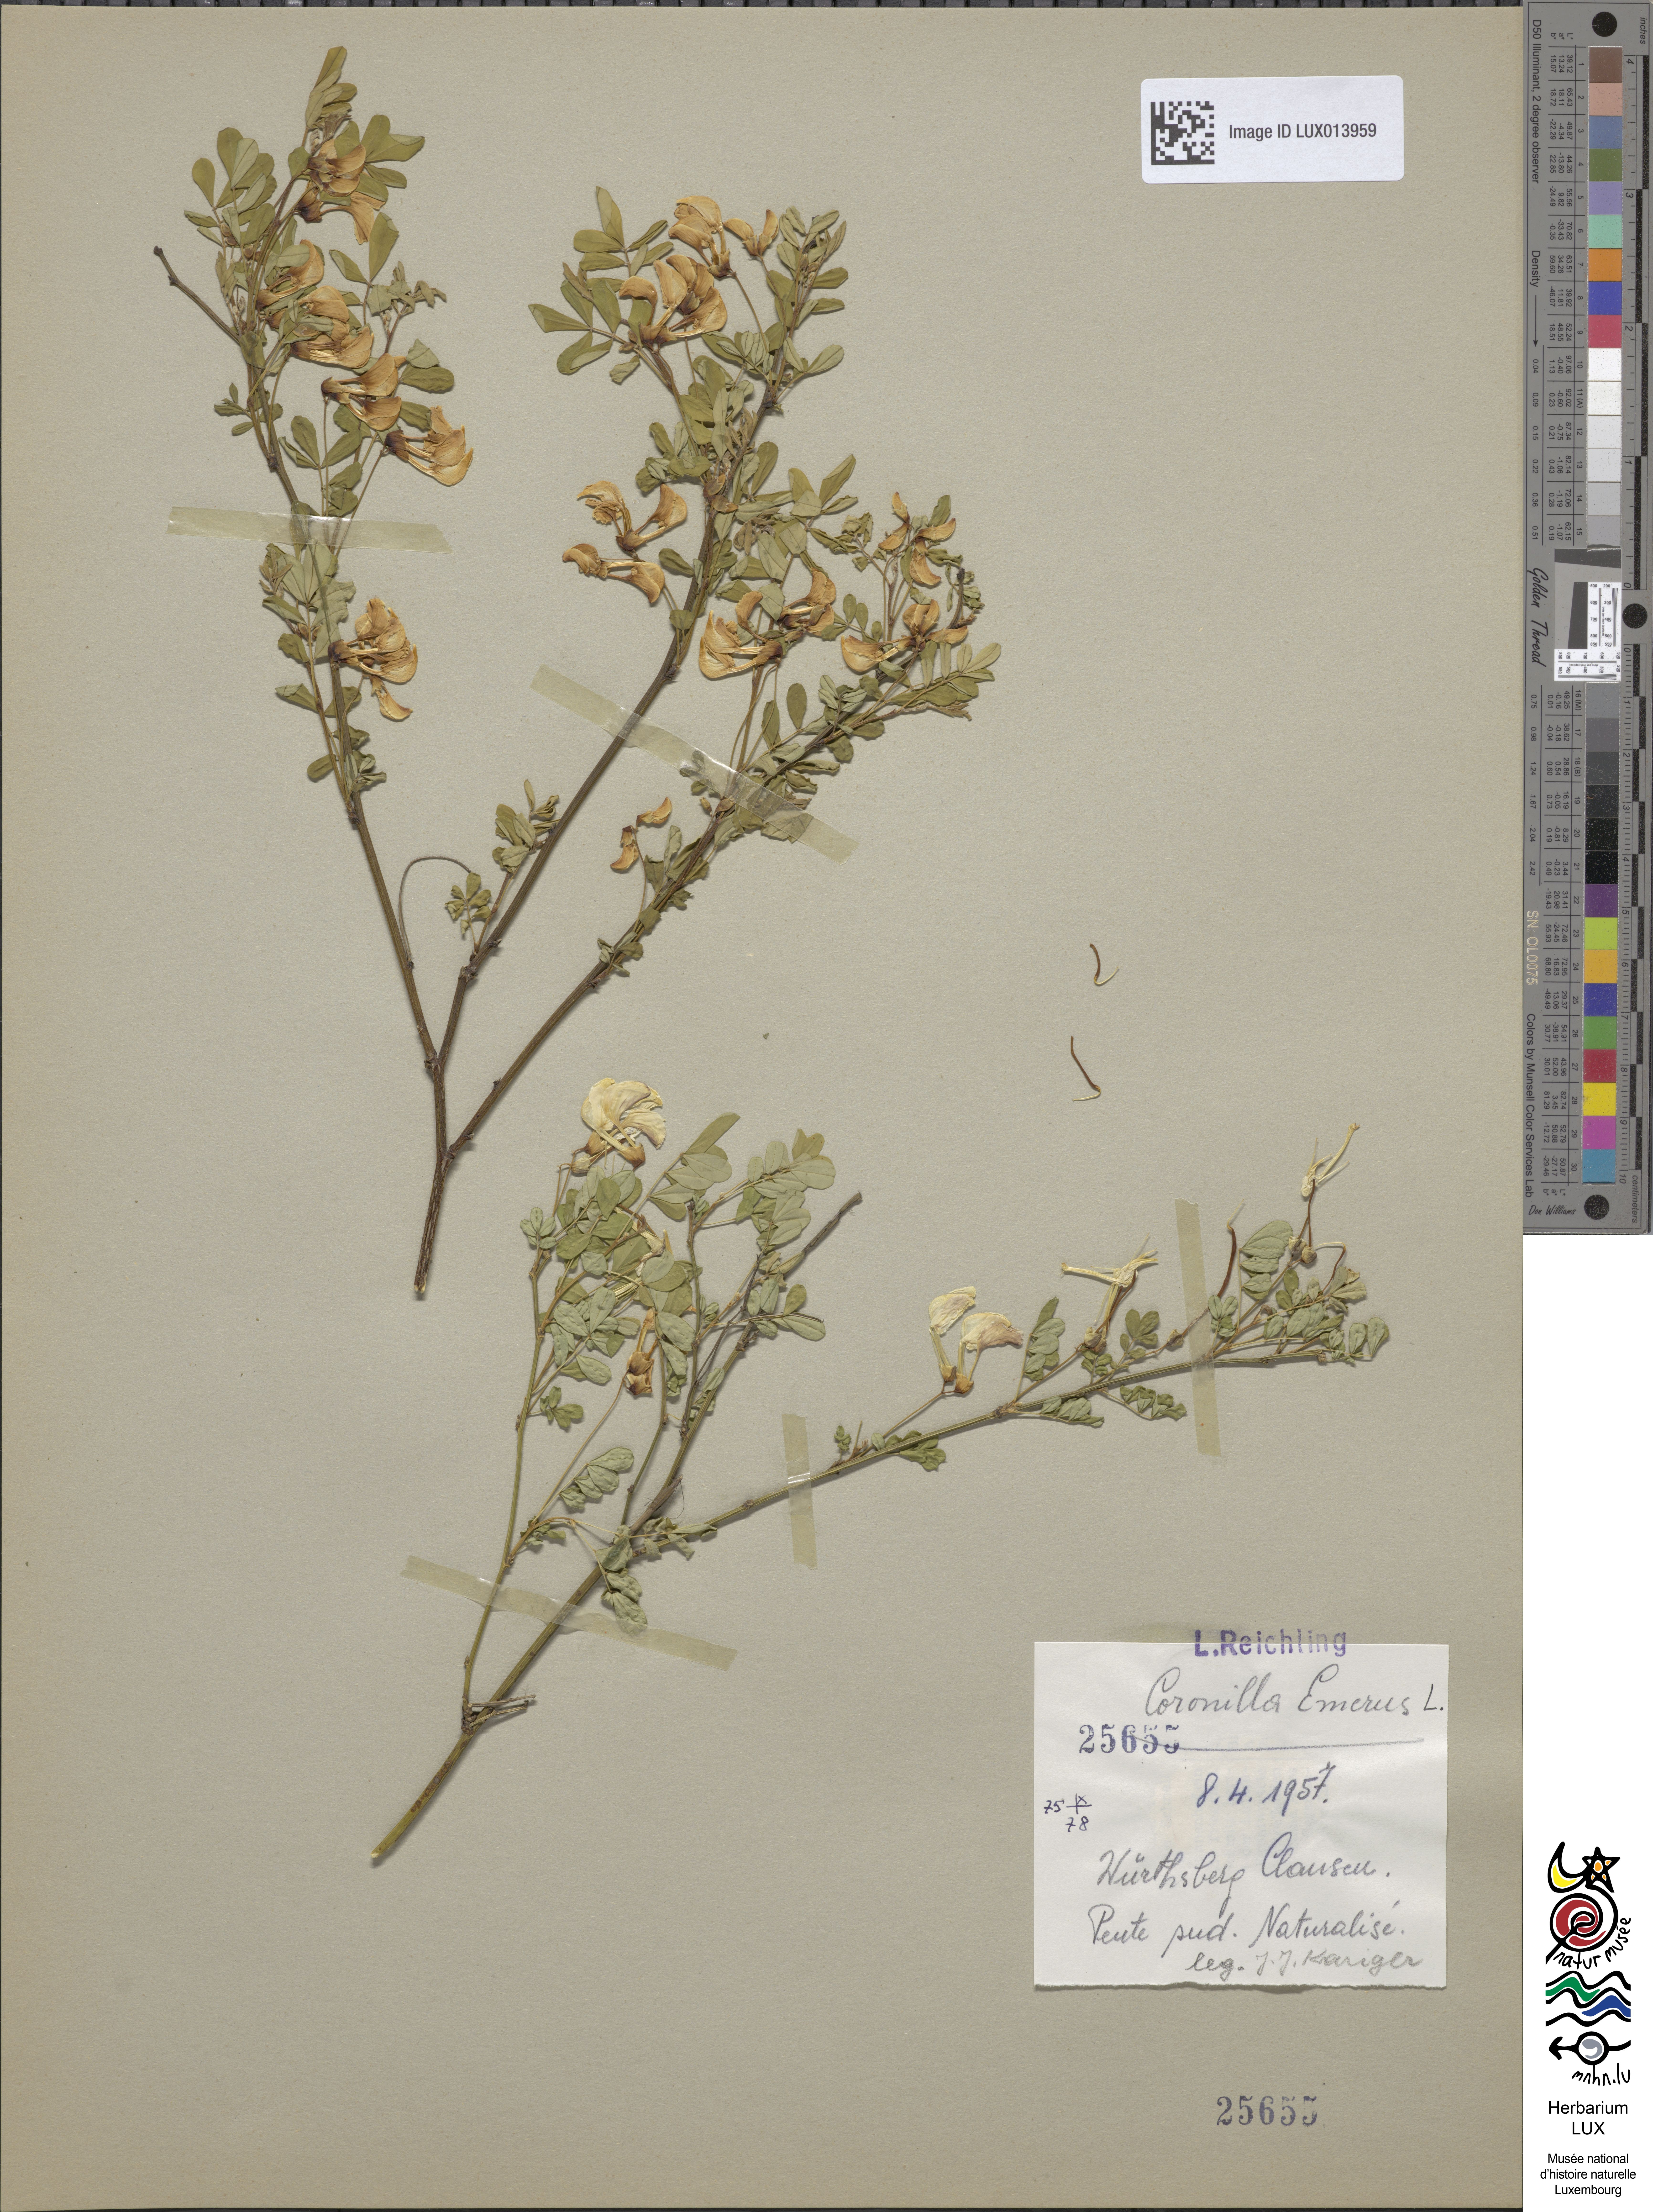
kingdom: Plantae
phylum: Tracheophyta
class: Magnoliopsida
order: Fabales
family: Fabaceae
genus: Hippocrepis
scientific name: Hippocrepis emerus
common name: Scorpion senna
